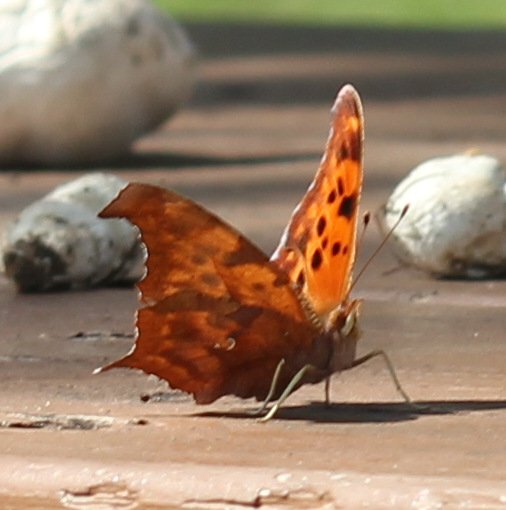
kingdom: Animalia
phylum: Arthropoda
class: Insecta
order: Lepidoptera
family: Nymphalidae
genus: Polygonia
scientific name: Polygonia interrogationis
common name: Question Mark
